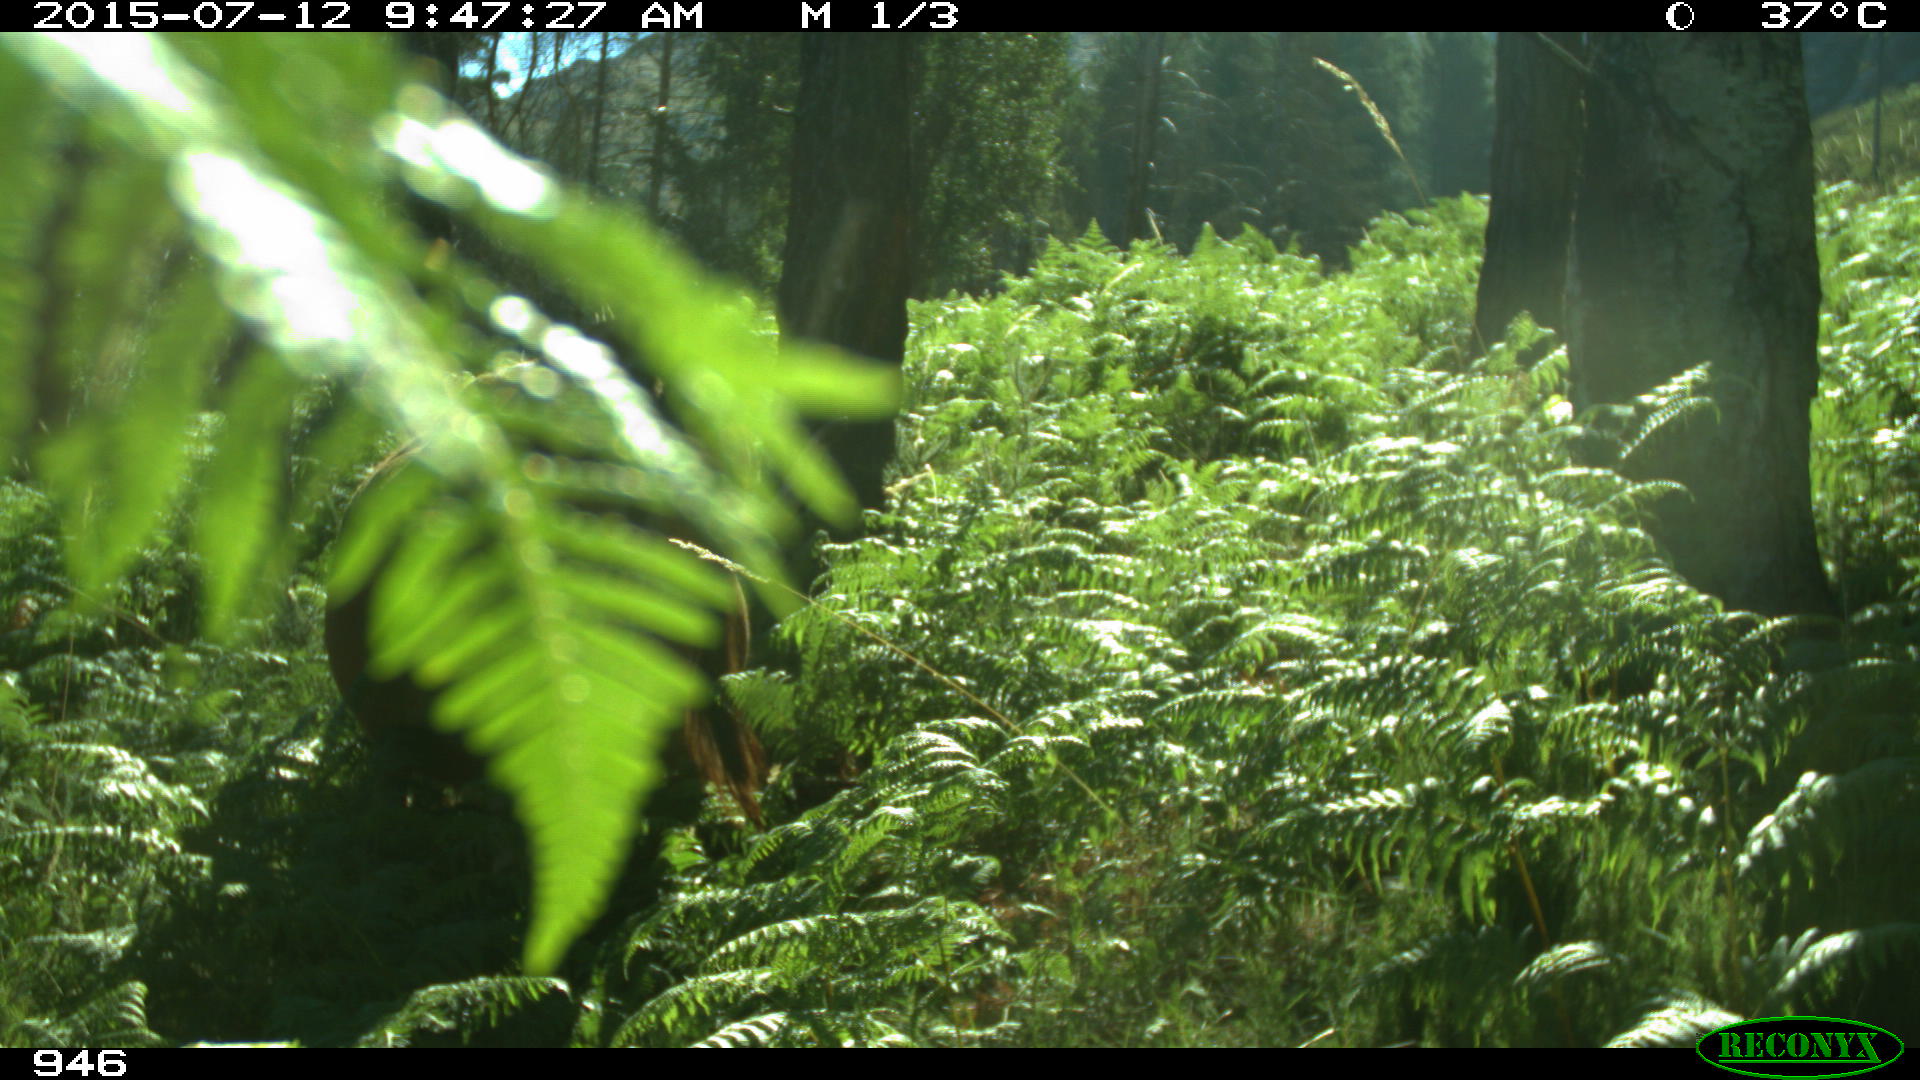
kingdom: Animalia
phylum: Chordata
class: Mammalia
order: Artiodactyla
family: Bovidae
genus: Bos
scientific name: Bos taurus
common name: Domesticated cattle
